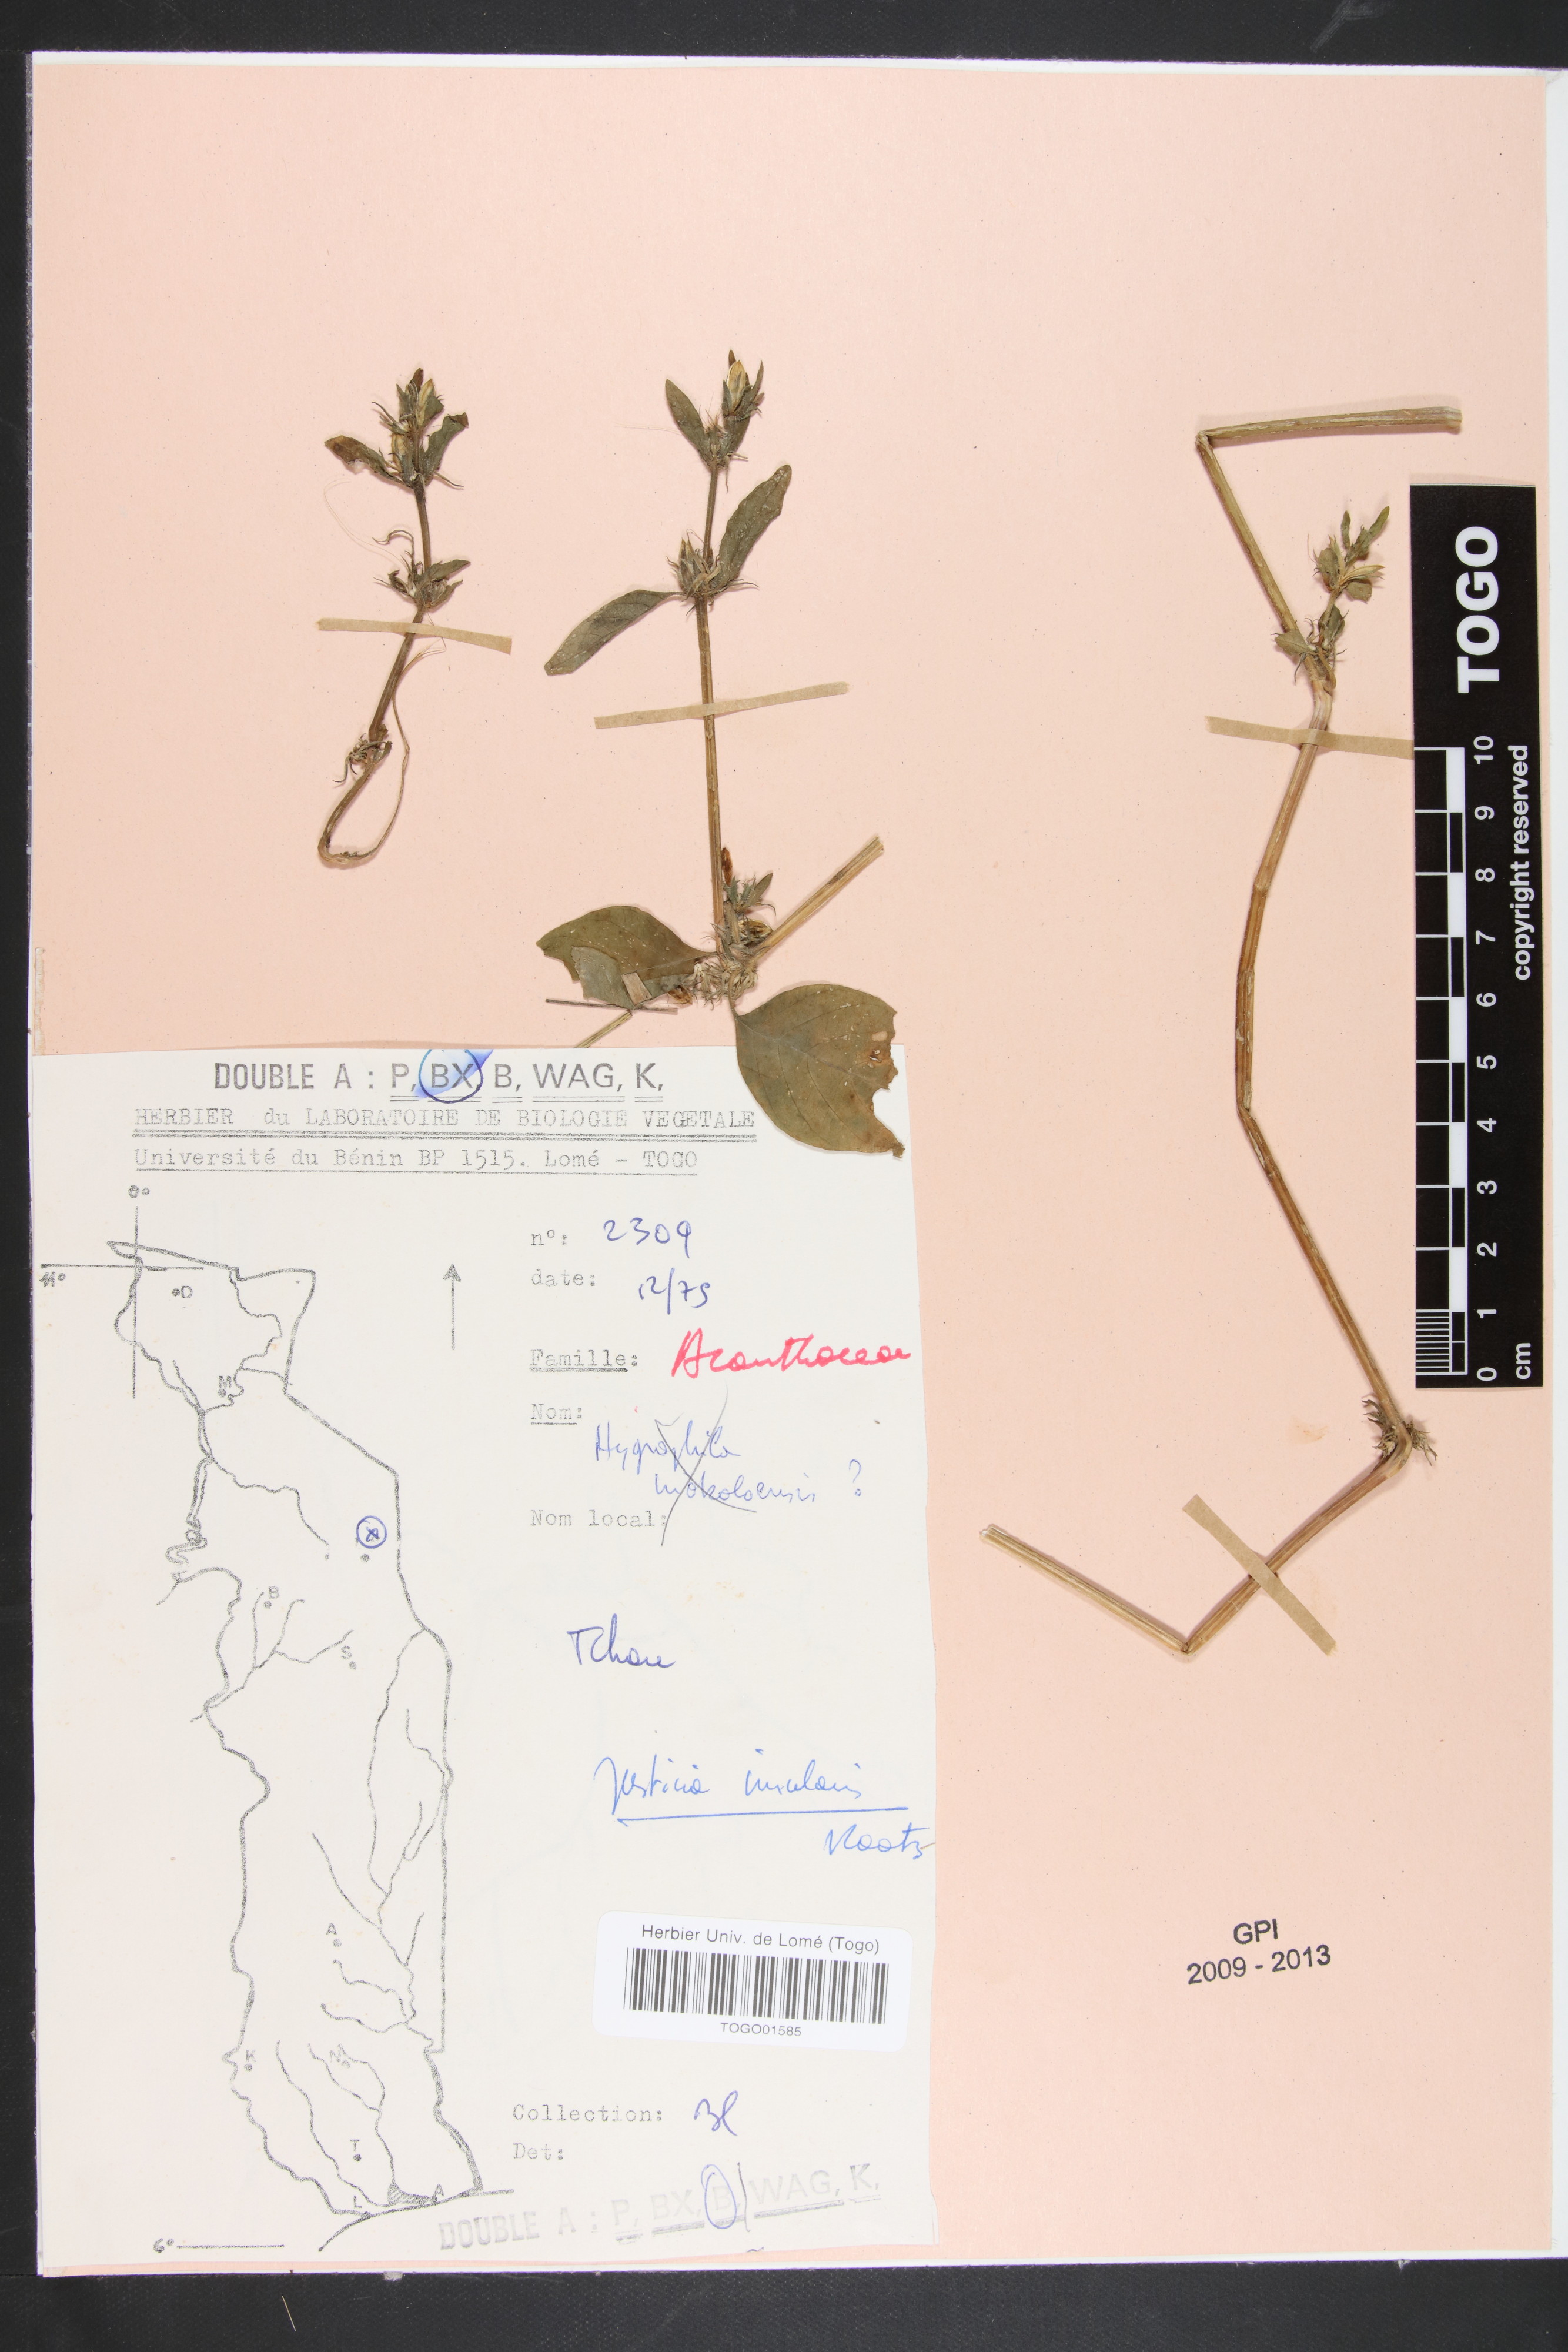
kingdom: Plantae
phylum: Tracheophyta
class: Magnoliopsida
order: Lamiales
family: Acanthaceae
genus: Justicia
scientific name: Justicia insularis
